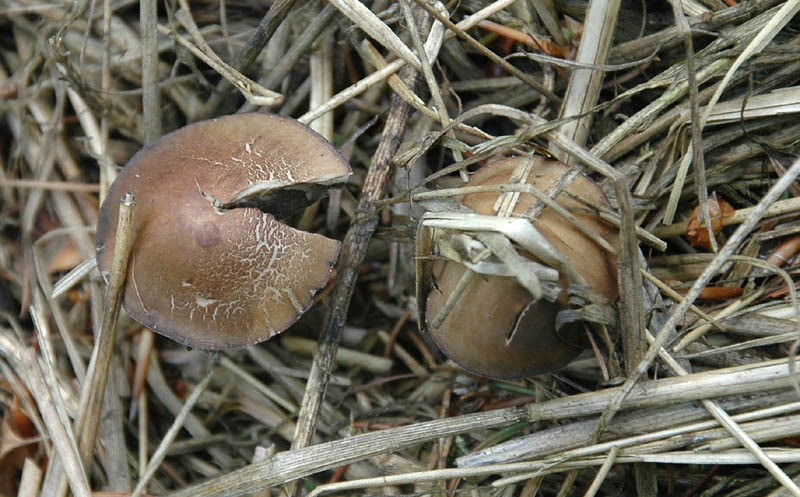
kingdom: Fungi
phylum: Basidiomycota
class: Agaricomycetes
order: Agaricales
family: Bolbitiaceae
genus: Panaeolus
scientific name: Panaeolus olivaceus
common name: lysstokket glanshat
